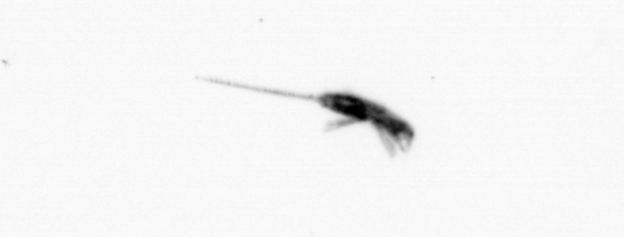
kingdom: Animalia
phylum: Arthropoda
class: Copepoda
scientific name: Copepoda
